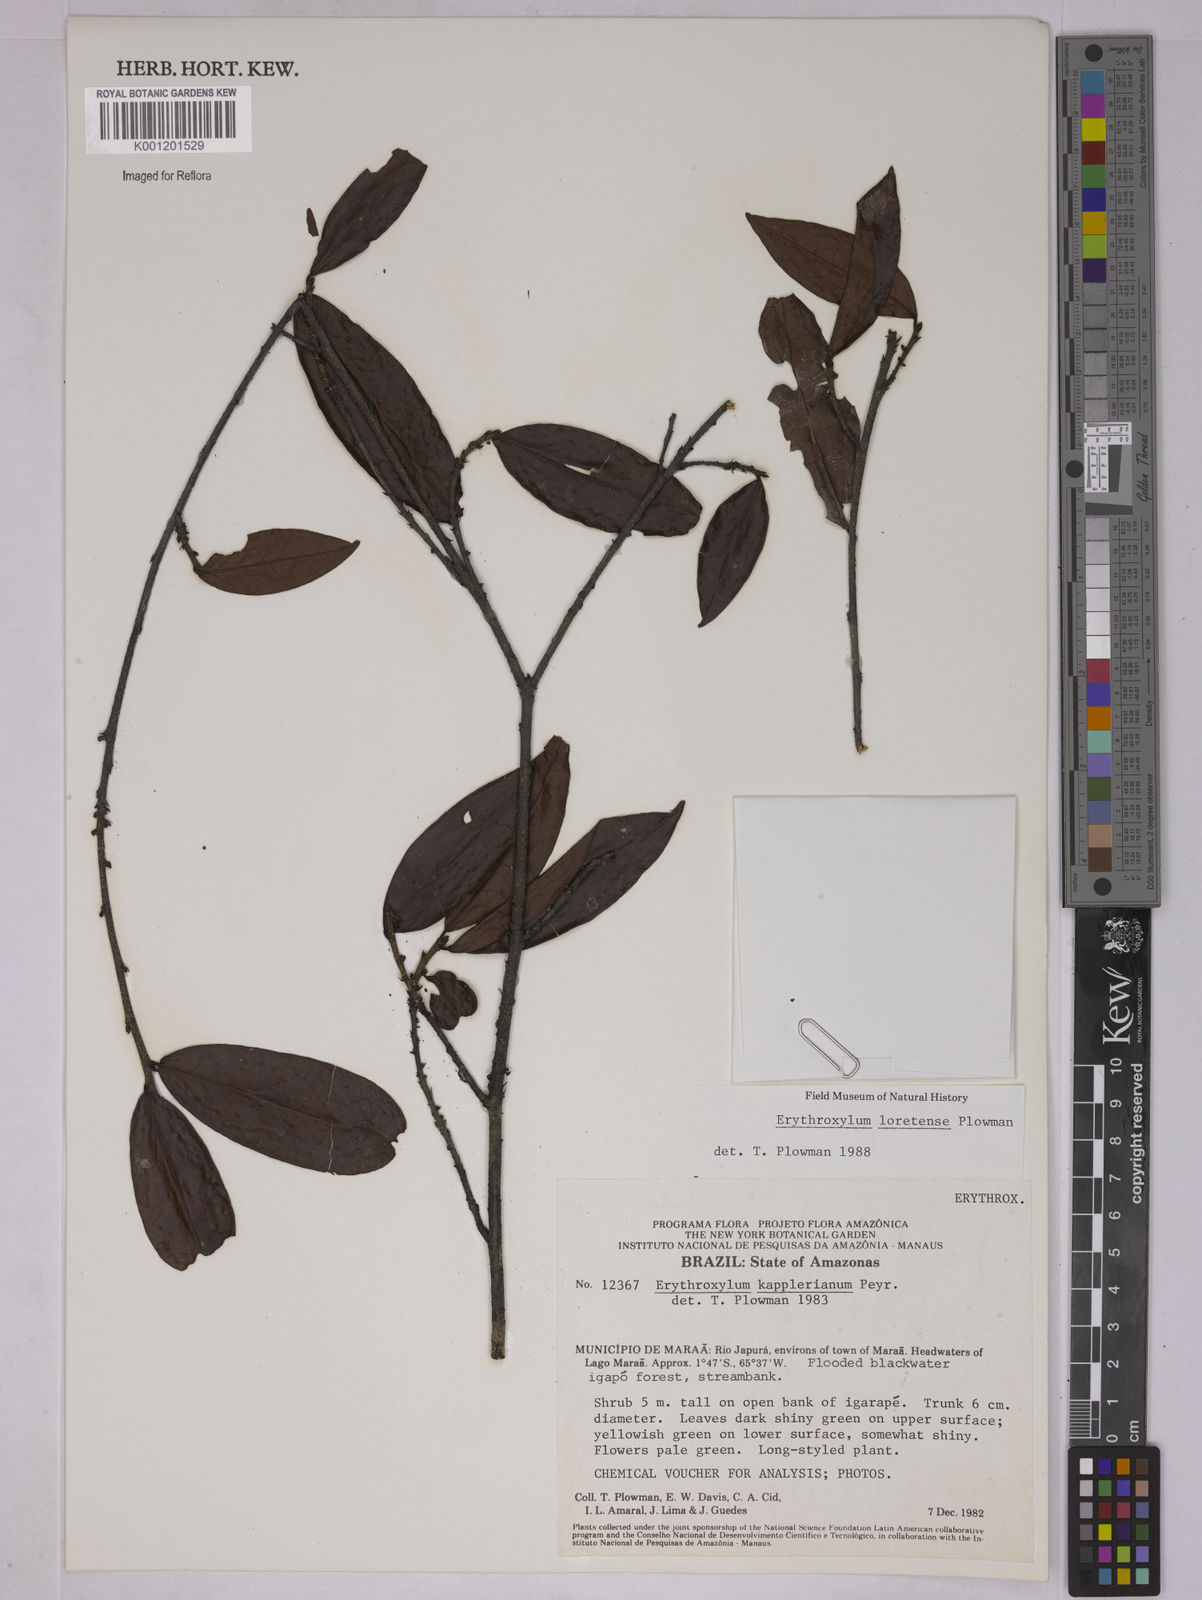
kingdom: Plantae
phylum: Tracheophyta
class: Magnoliopsida
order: Malpighiales
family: Erythroxylaceae
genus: Erythroxylum
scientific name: Erythroxylum loretense
